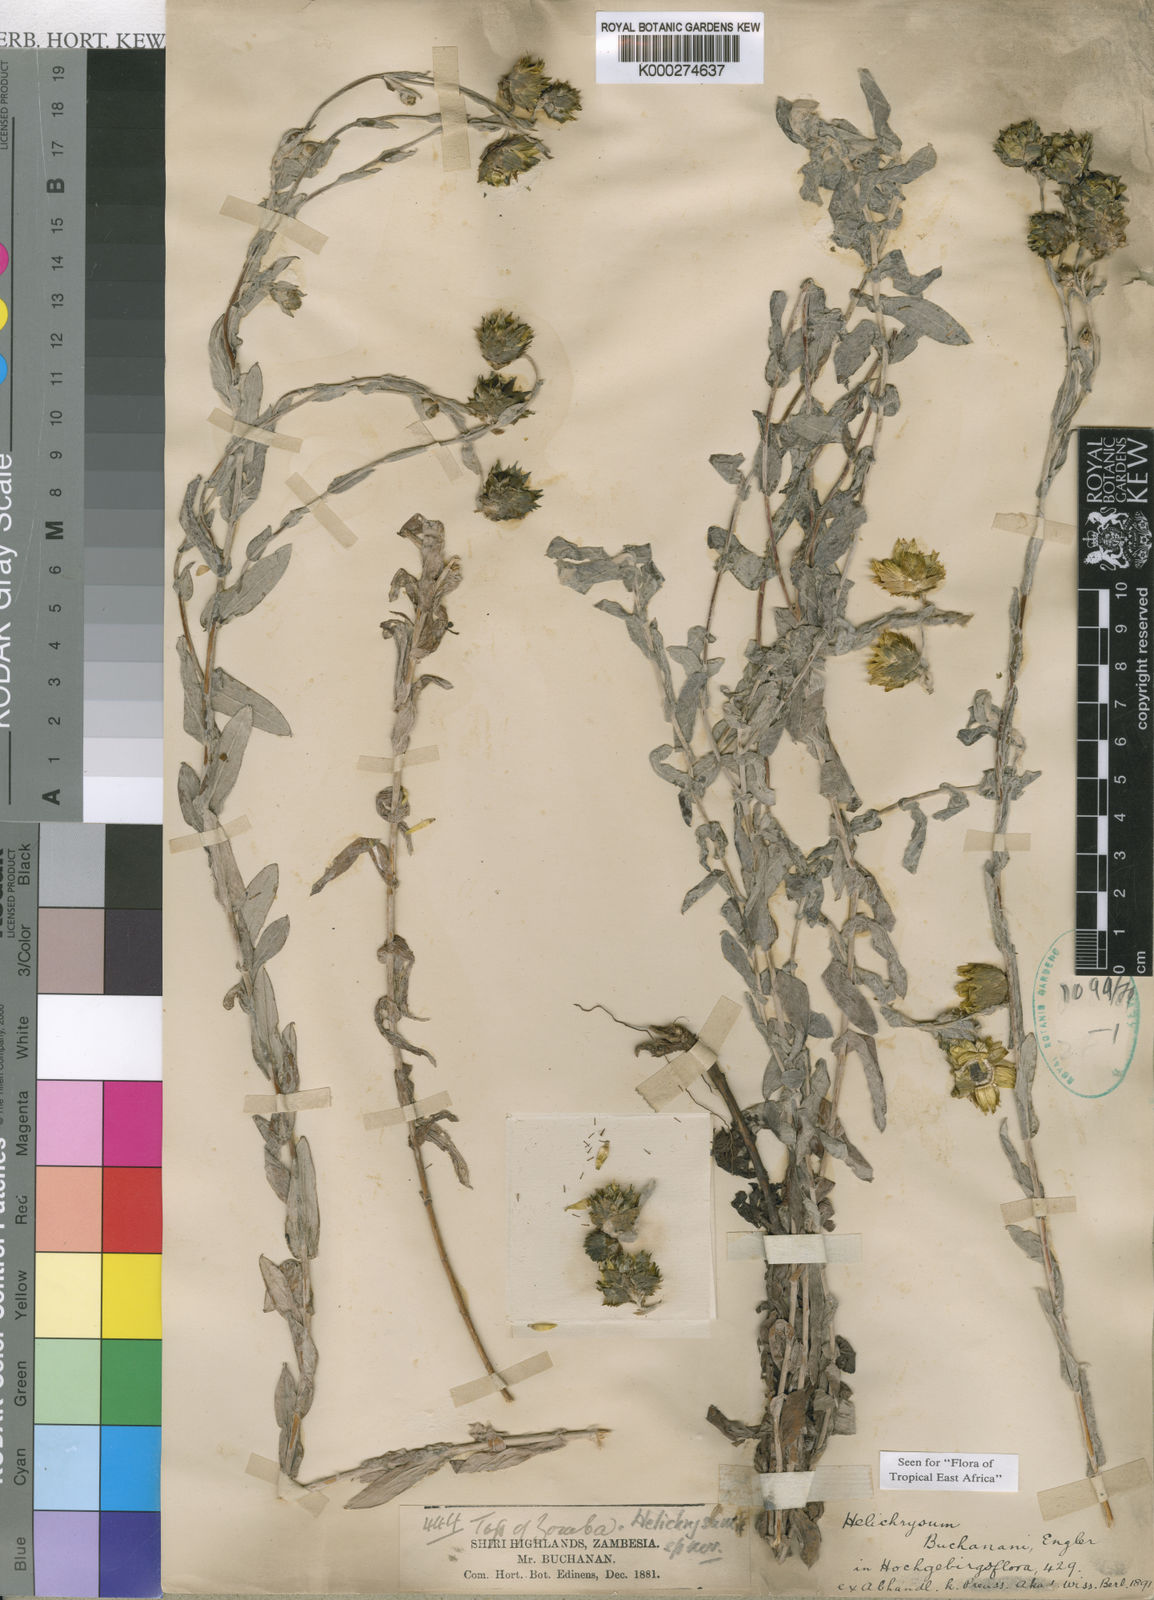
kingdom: Plantae
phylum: Tracheophyta
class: Magnoliopsida
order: Asterales
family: Asteraceae
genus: Helichrysum
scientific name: Helichrysum buchananii
